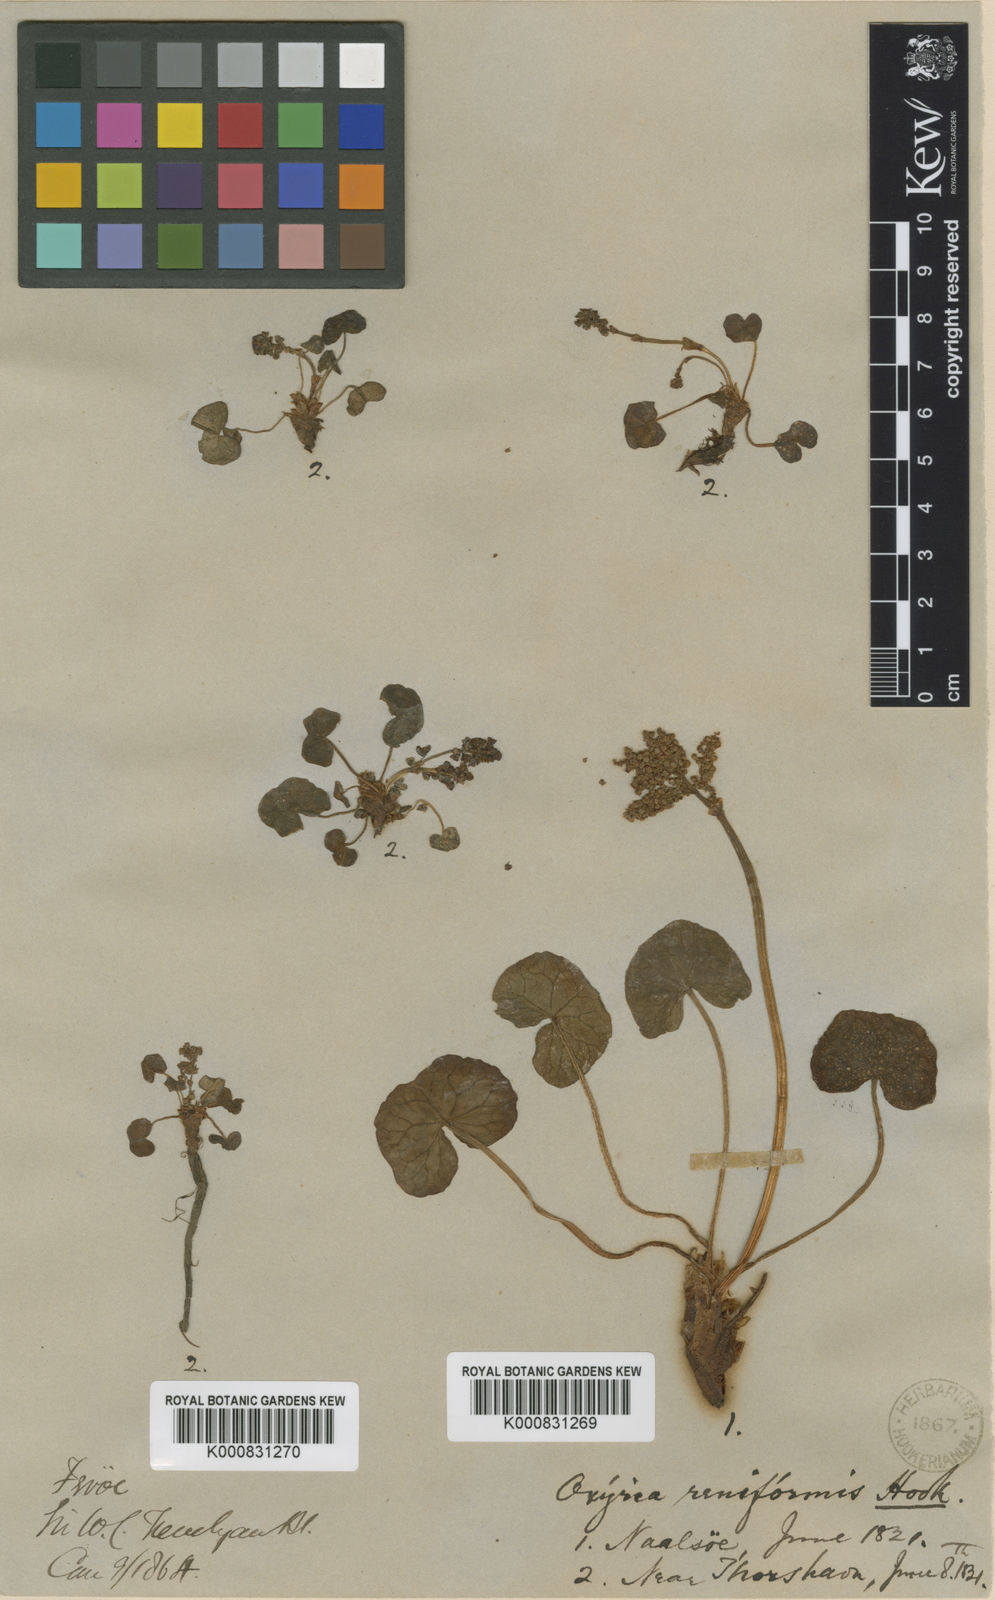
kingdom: Plantae
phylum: Tracheophyta
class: Magnoliopsida
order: Caryophyllales
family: Polygonaceae
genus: Oxyria
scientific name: Oxyria digyna
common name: Alpine mountain-sorrel
